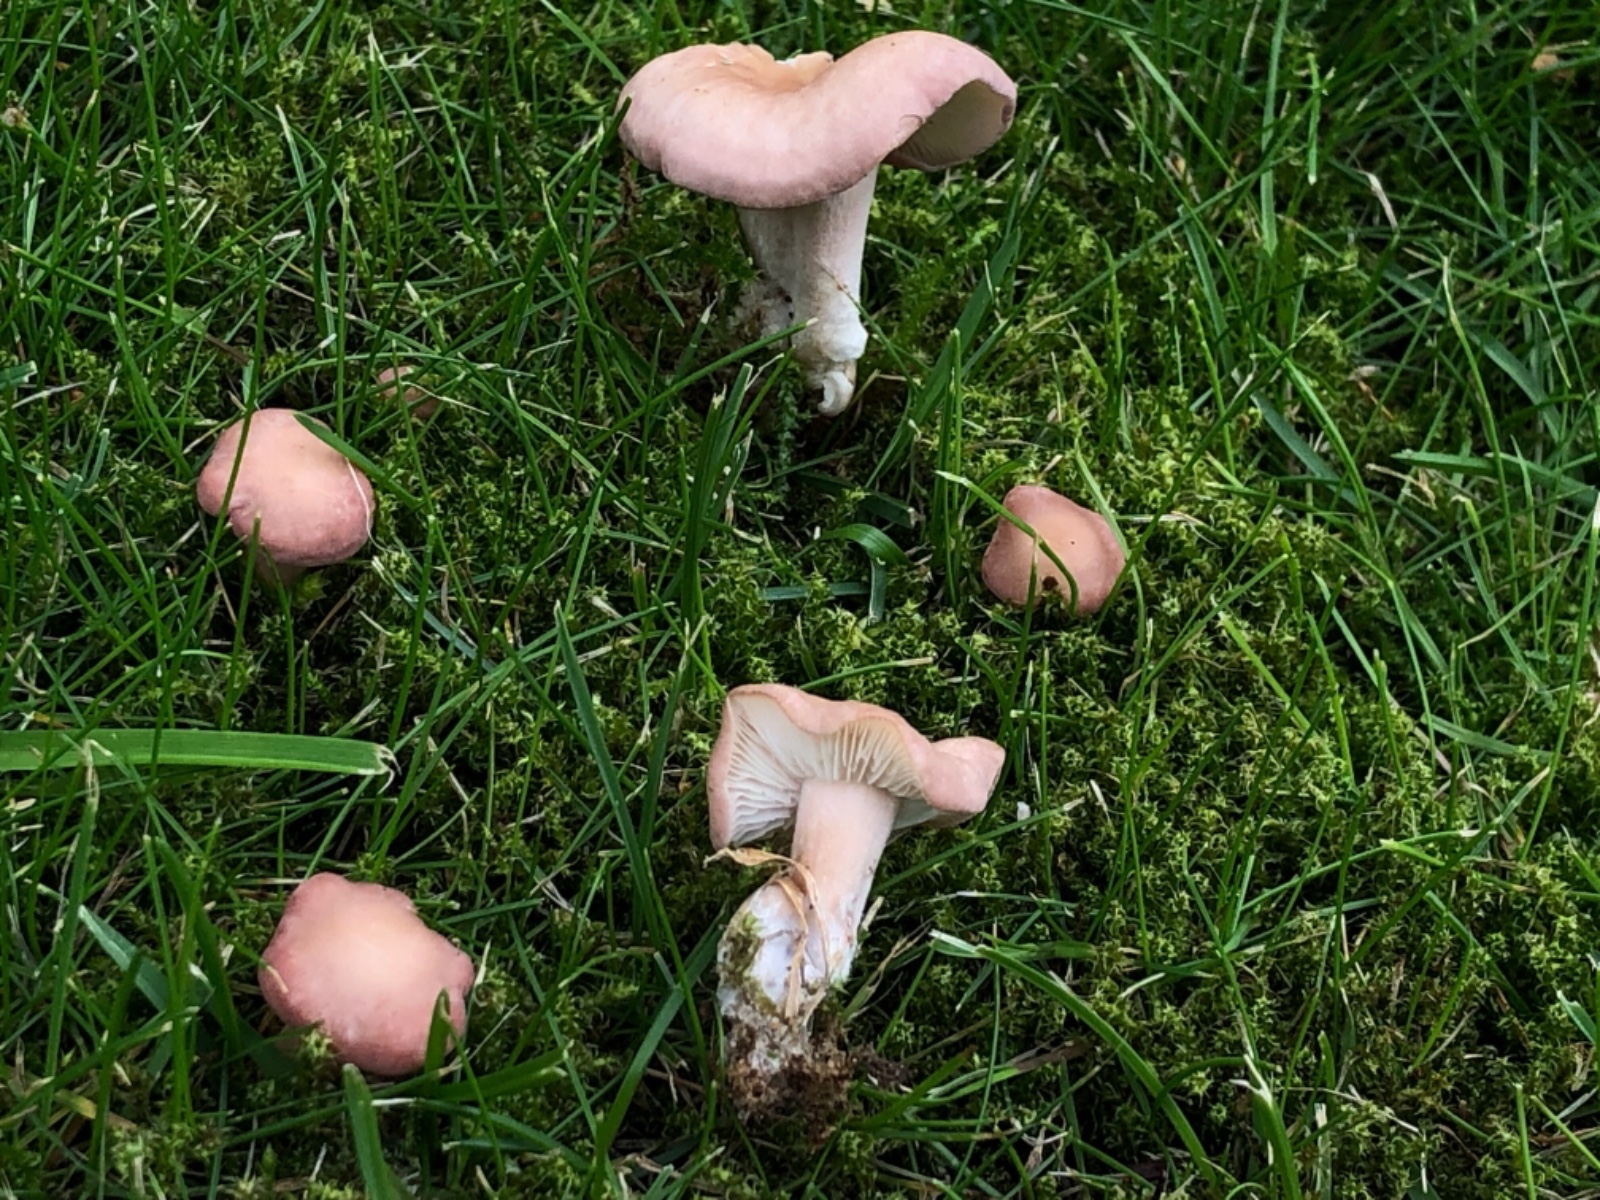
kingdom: Fungi
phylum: Basidiomycota
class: Agaricomycetes
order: Agaricales
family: Lyophyllaceae
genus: Calocybe
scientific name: Calocybe carnea
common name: rosa fagerhat
